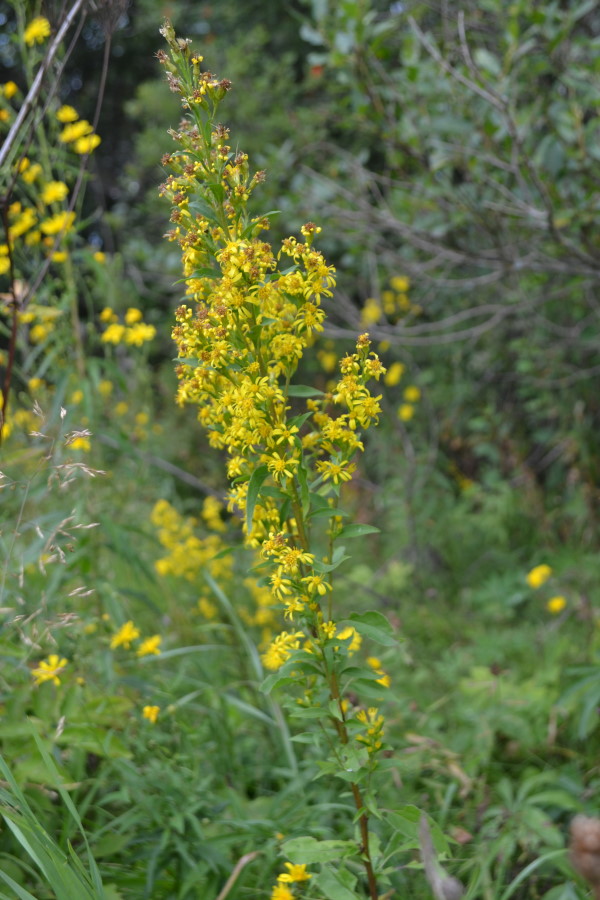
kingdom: Plantae
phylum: Tracheophyta
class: Magnoliopsida
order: Asterales
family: Asteraceae
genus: Solidago
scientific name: Solidago virgaurea
